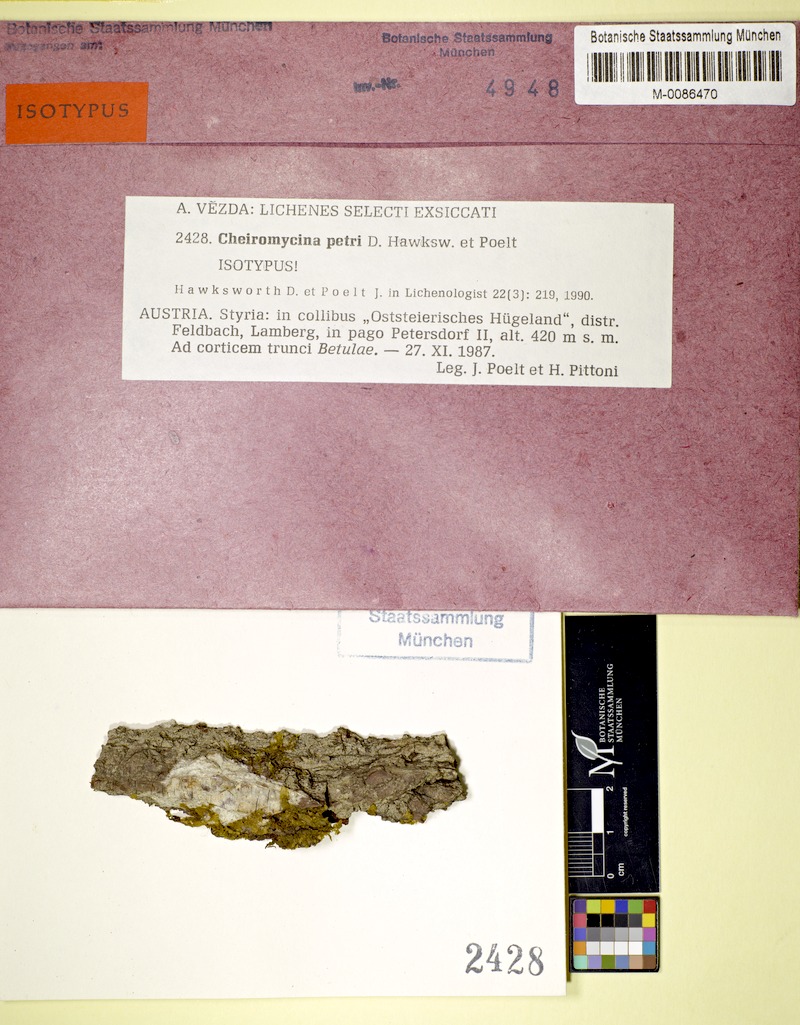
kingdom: Fungi
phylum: Ascomycota
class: Lecanoromycetes
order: Lecanorales
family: Malmideaceae
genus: Cheiromycina
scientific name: Cheiromycina petri
